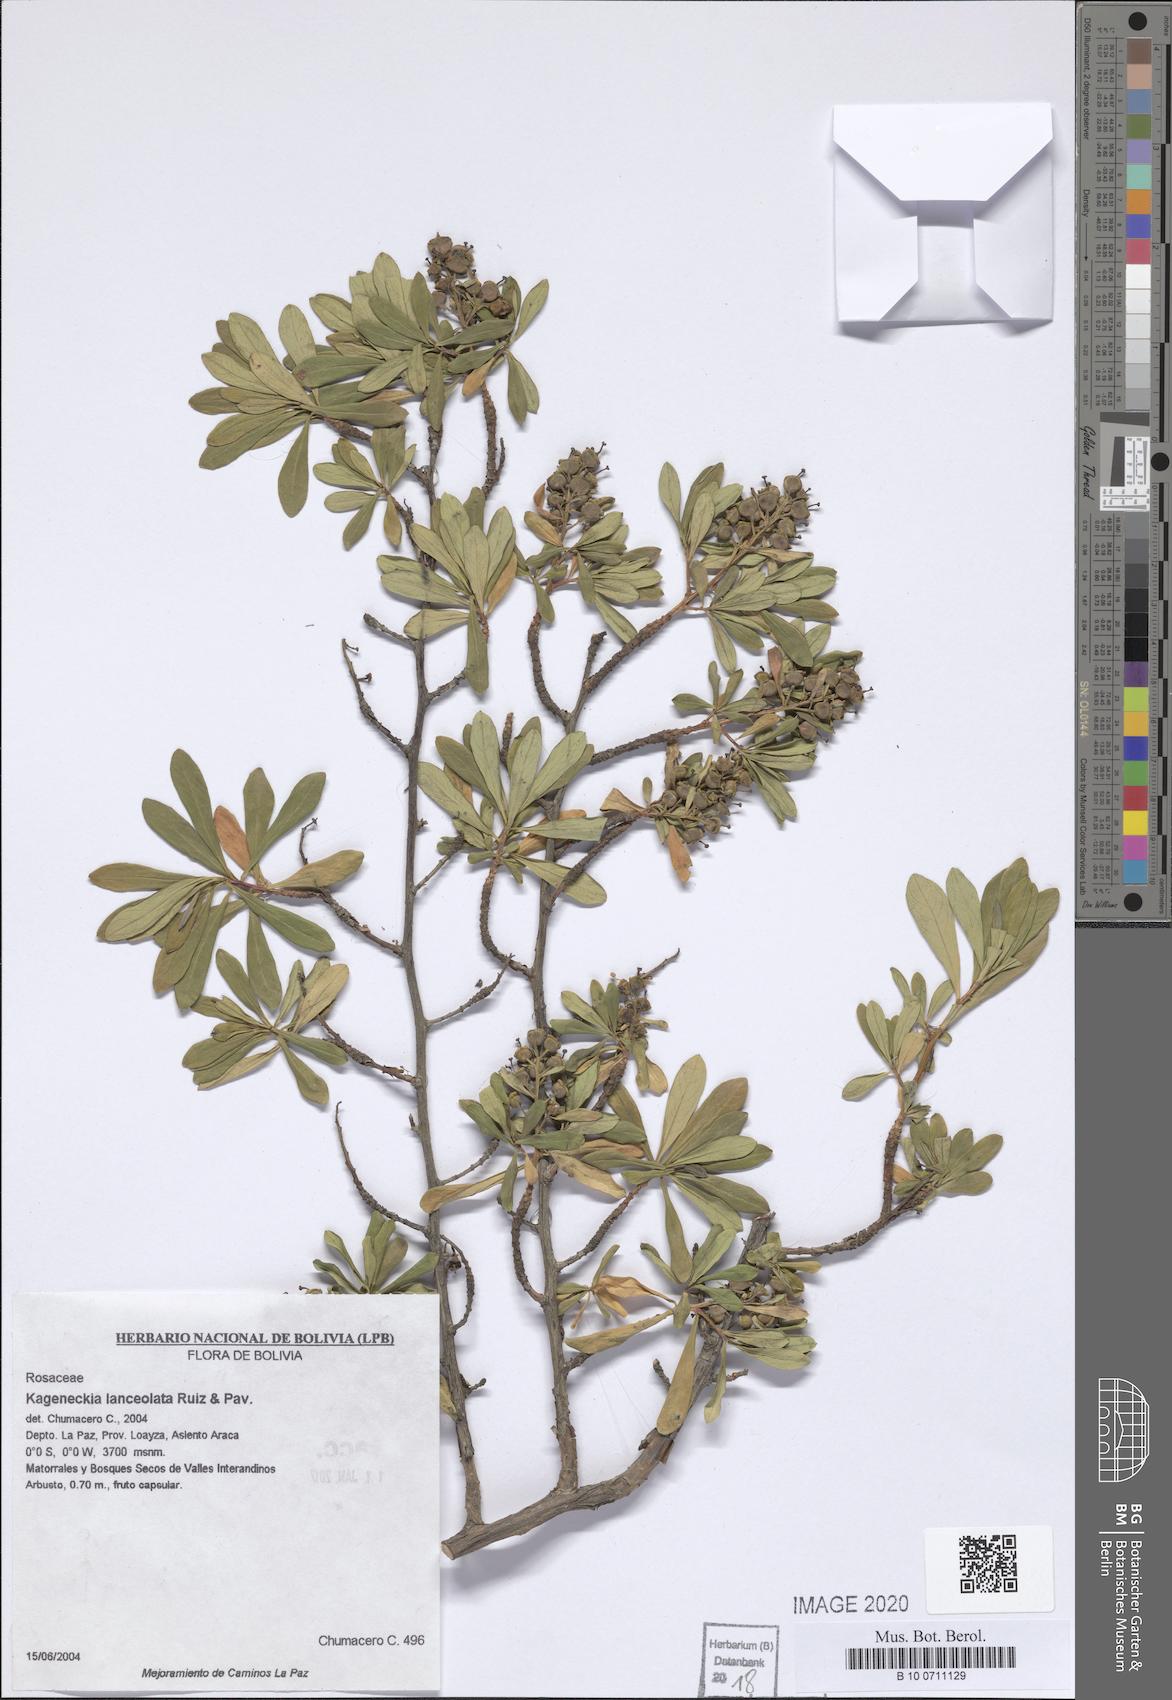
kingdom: Plantae
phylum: Tracheophyta
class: Magnoliopsida
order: Rosales
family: Rosaceae
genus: Kageneckia
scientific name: Kageneckia lanceolata
